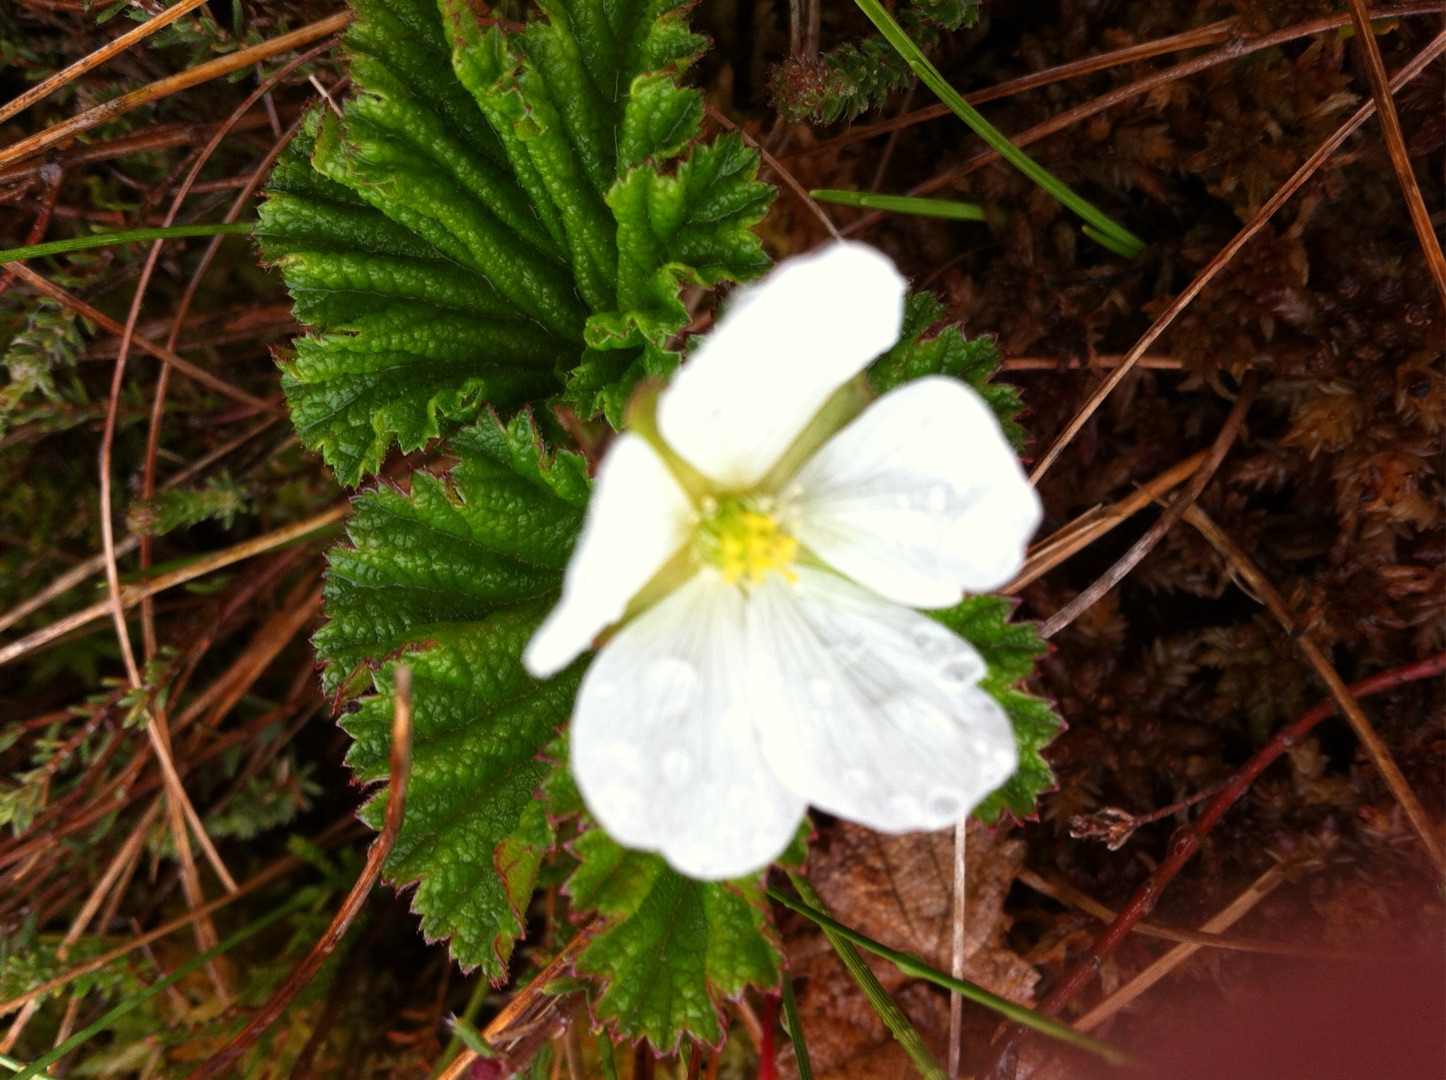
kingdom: Plantae
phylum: Tracheophyta
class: Magnoliopsida
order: Rosales
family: Rosaceae
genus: Rubus
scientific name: Rubus chamaemorus
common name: Multebær
